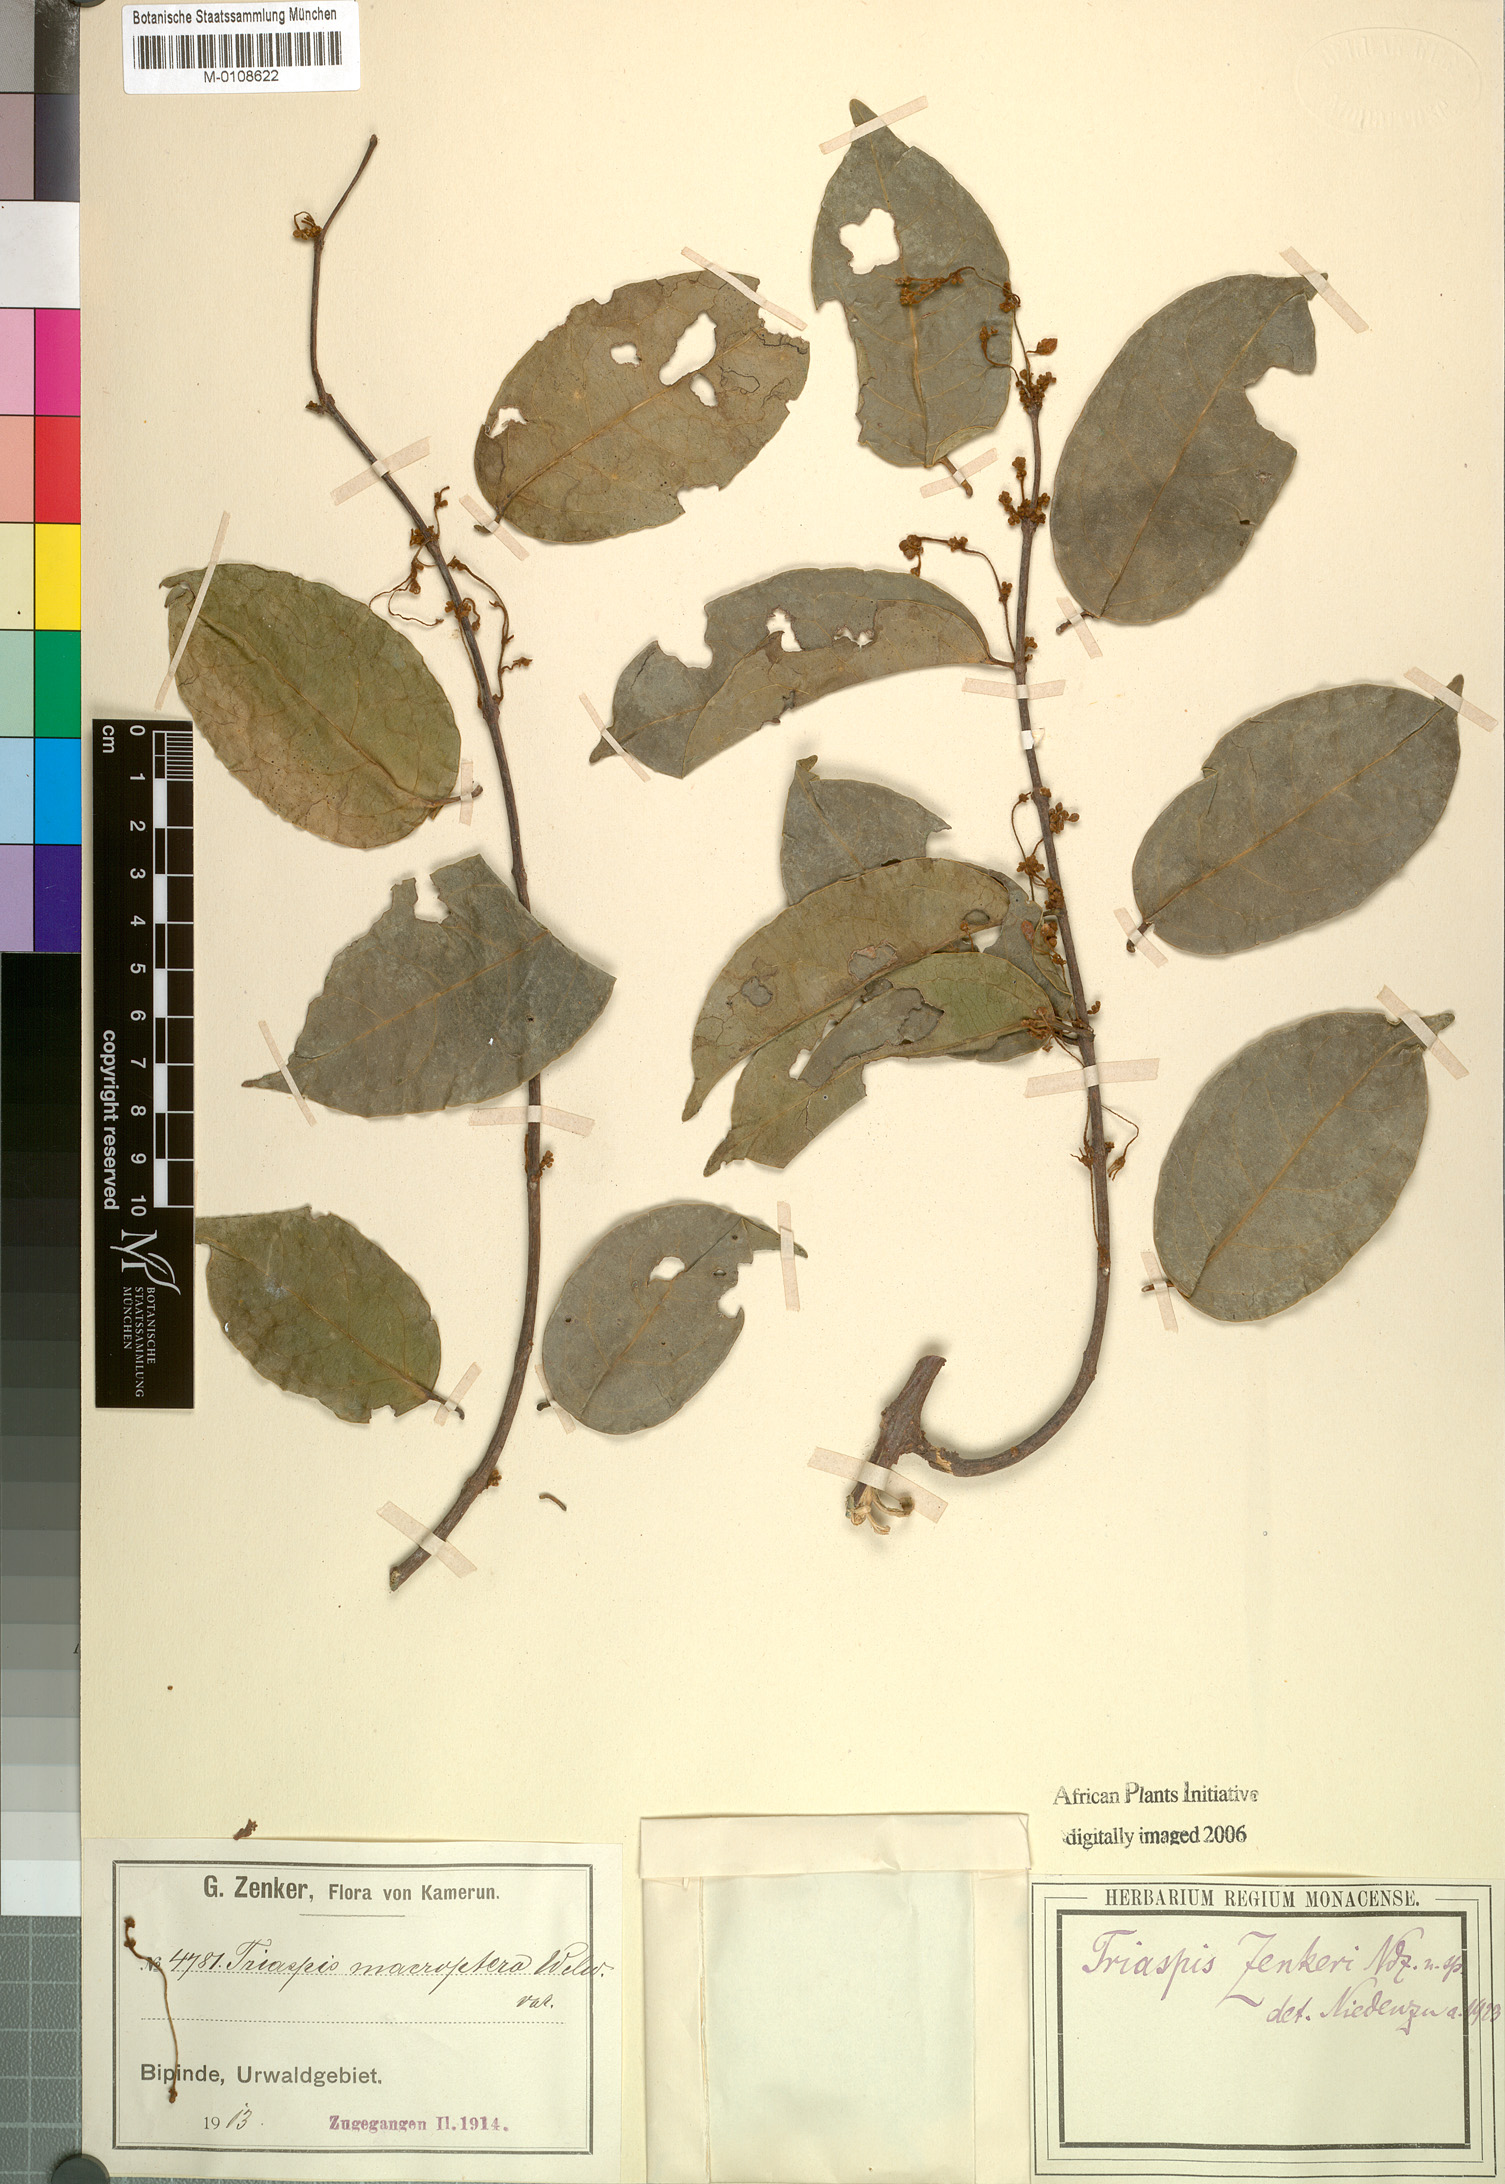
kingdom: Plantae
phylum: Tracheophyta
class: Magnoliopsida
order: Malpighiales
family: Malpighiaceae
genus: Triaspis
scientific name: Triaspis emarginata
